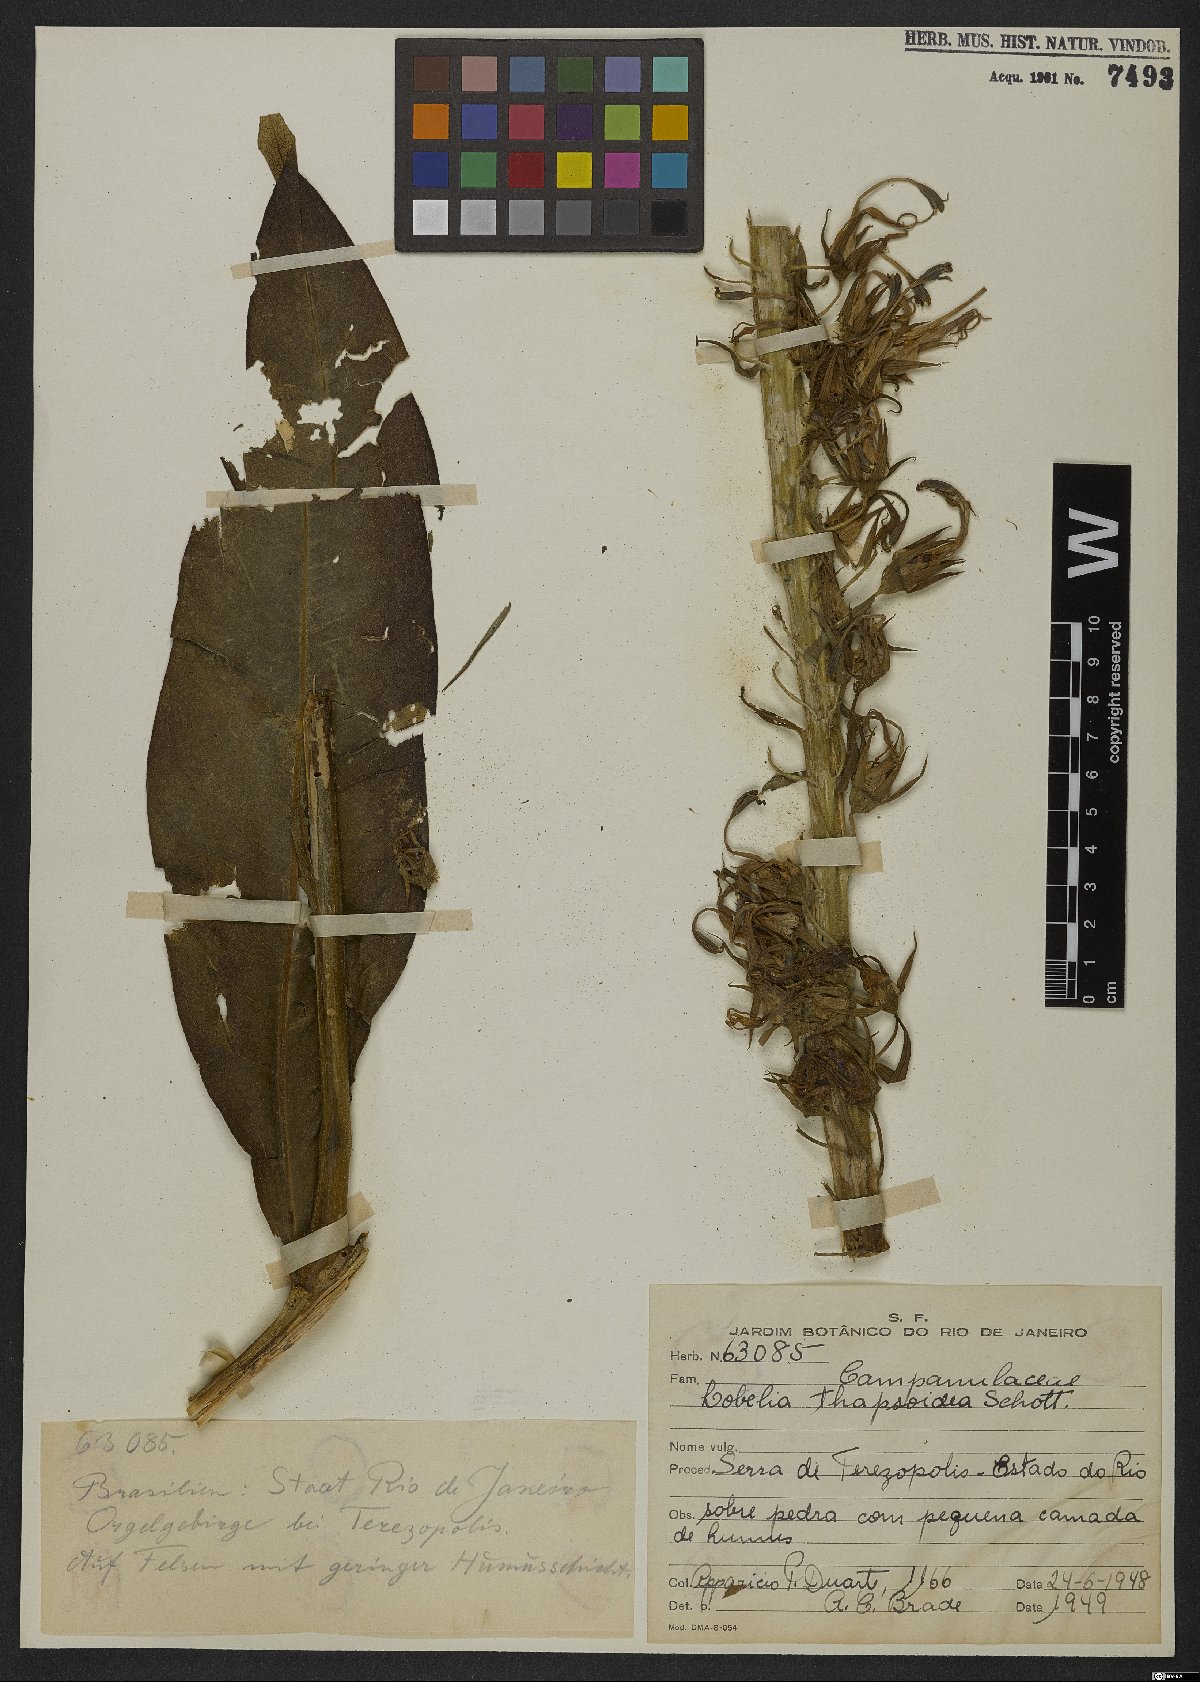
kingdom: Plantae
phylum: Tracheophyta
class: Magnoliopsida
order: Asterales
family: Campanulaceae
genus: Lobelia
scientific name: Lobelia thapsoidea
